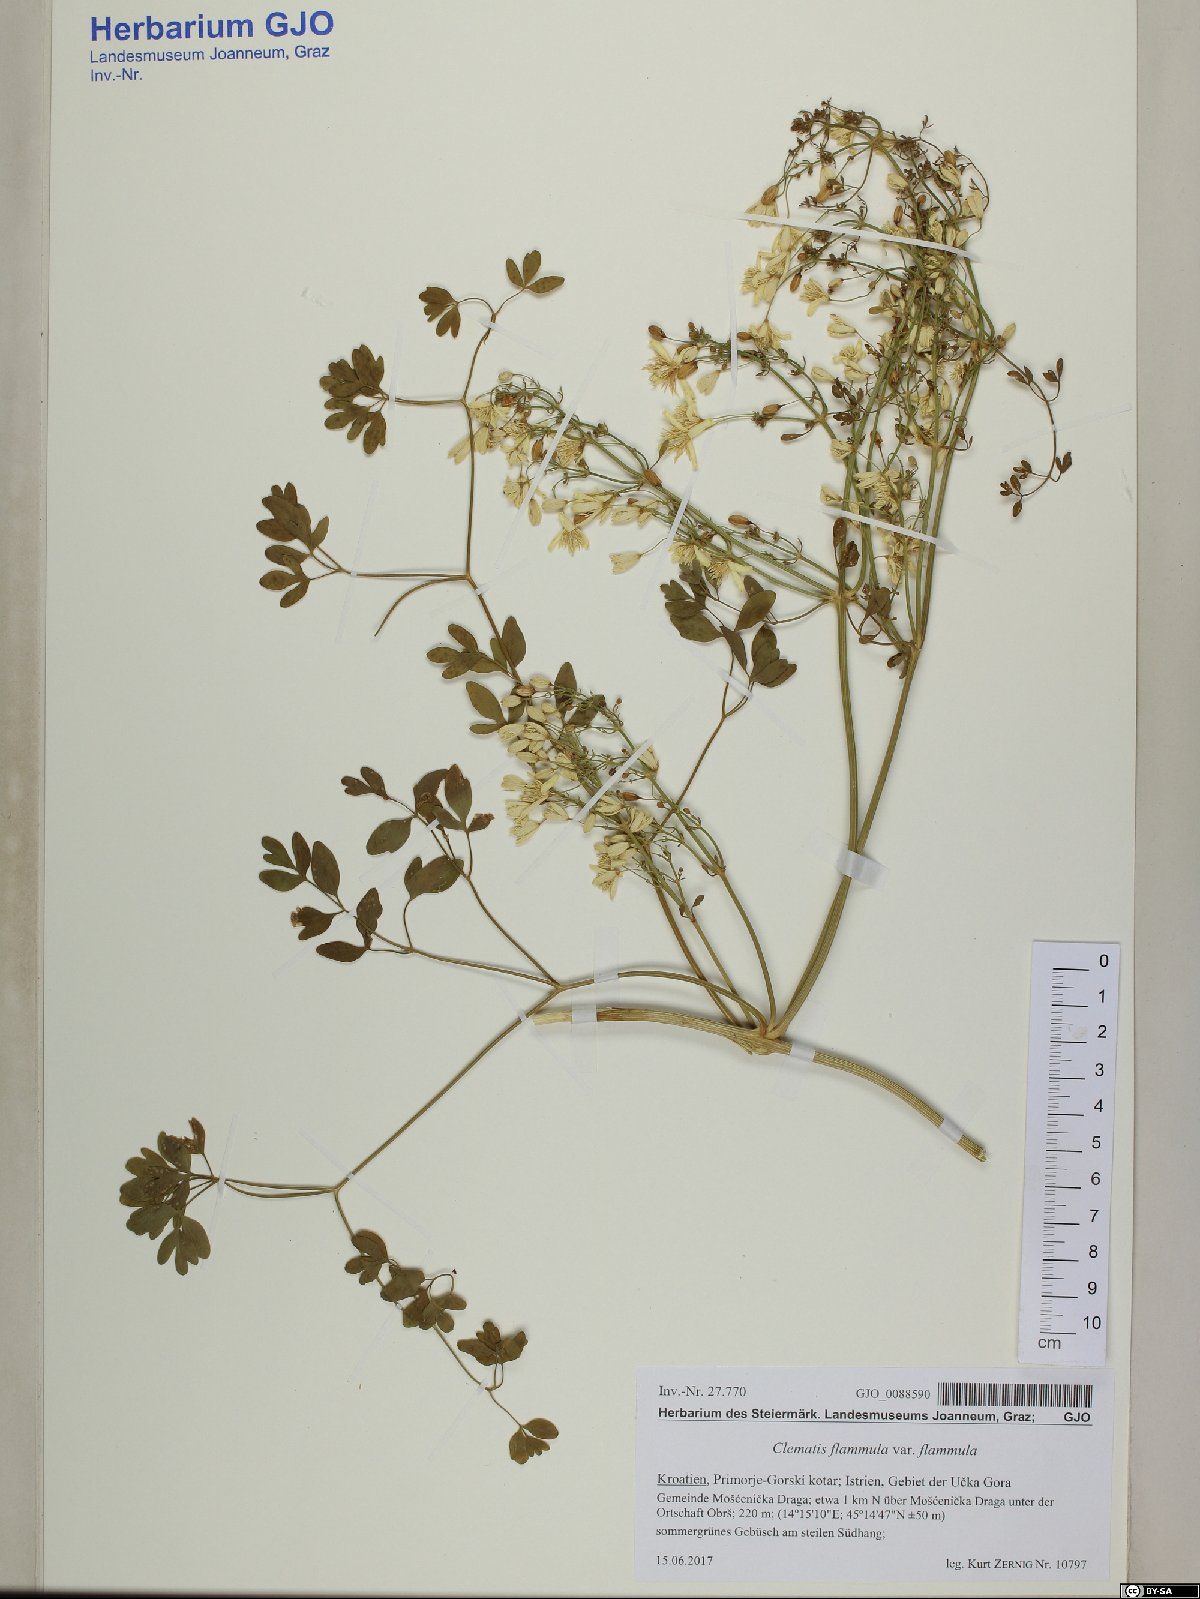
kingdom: Plantae
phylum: Tracheophyta
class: Magnoliopsida
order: Ranunculales
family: Ranunculaceae
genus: Clematis
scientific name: Clematis flammula
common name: Virgin's-bower
